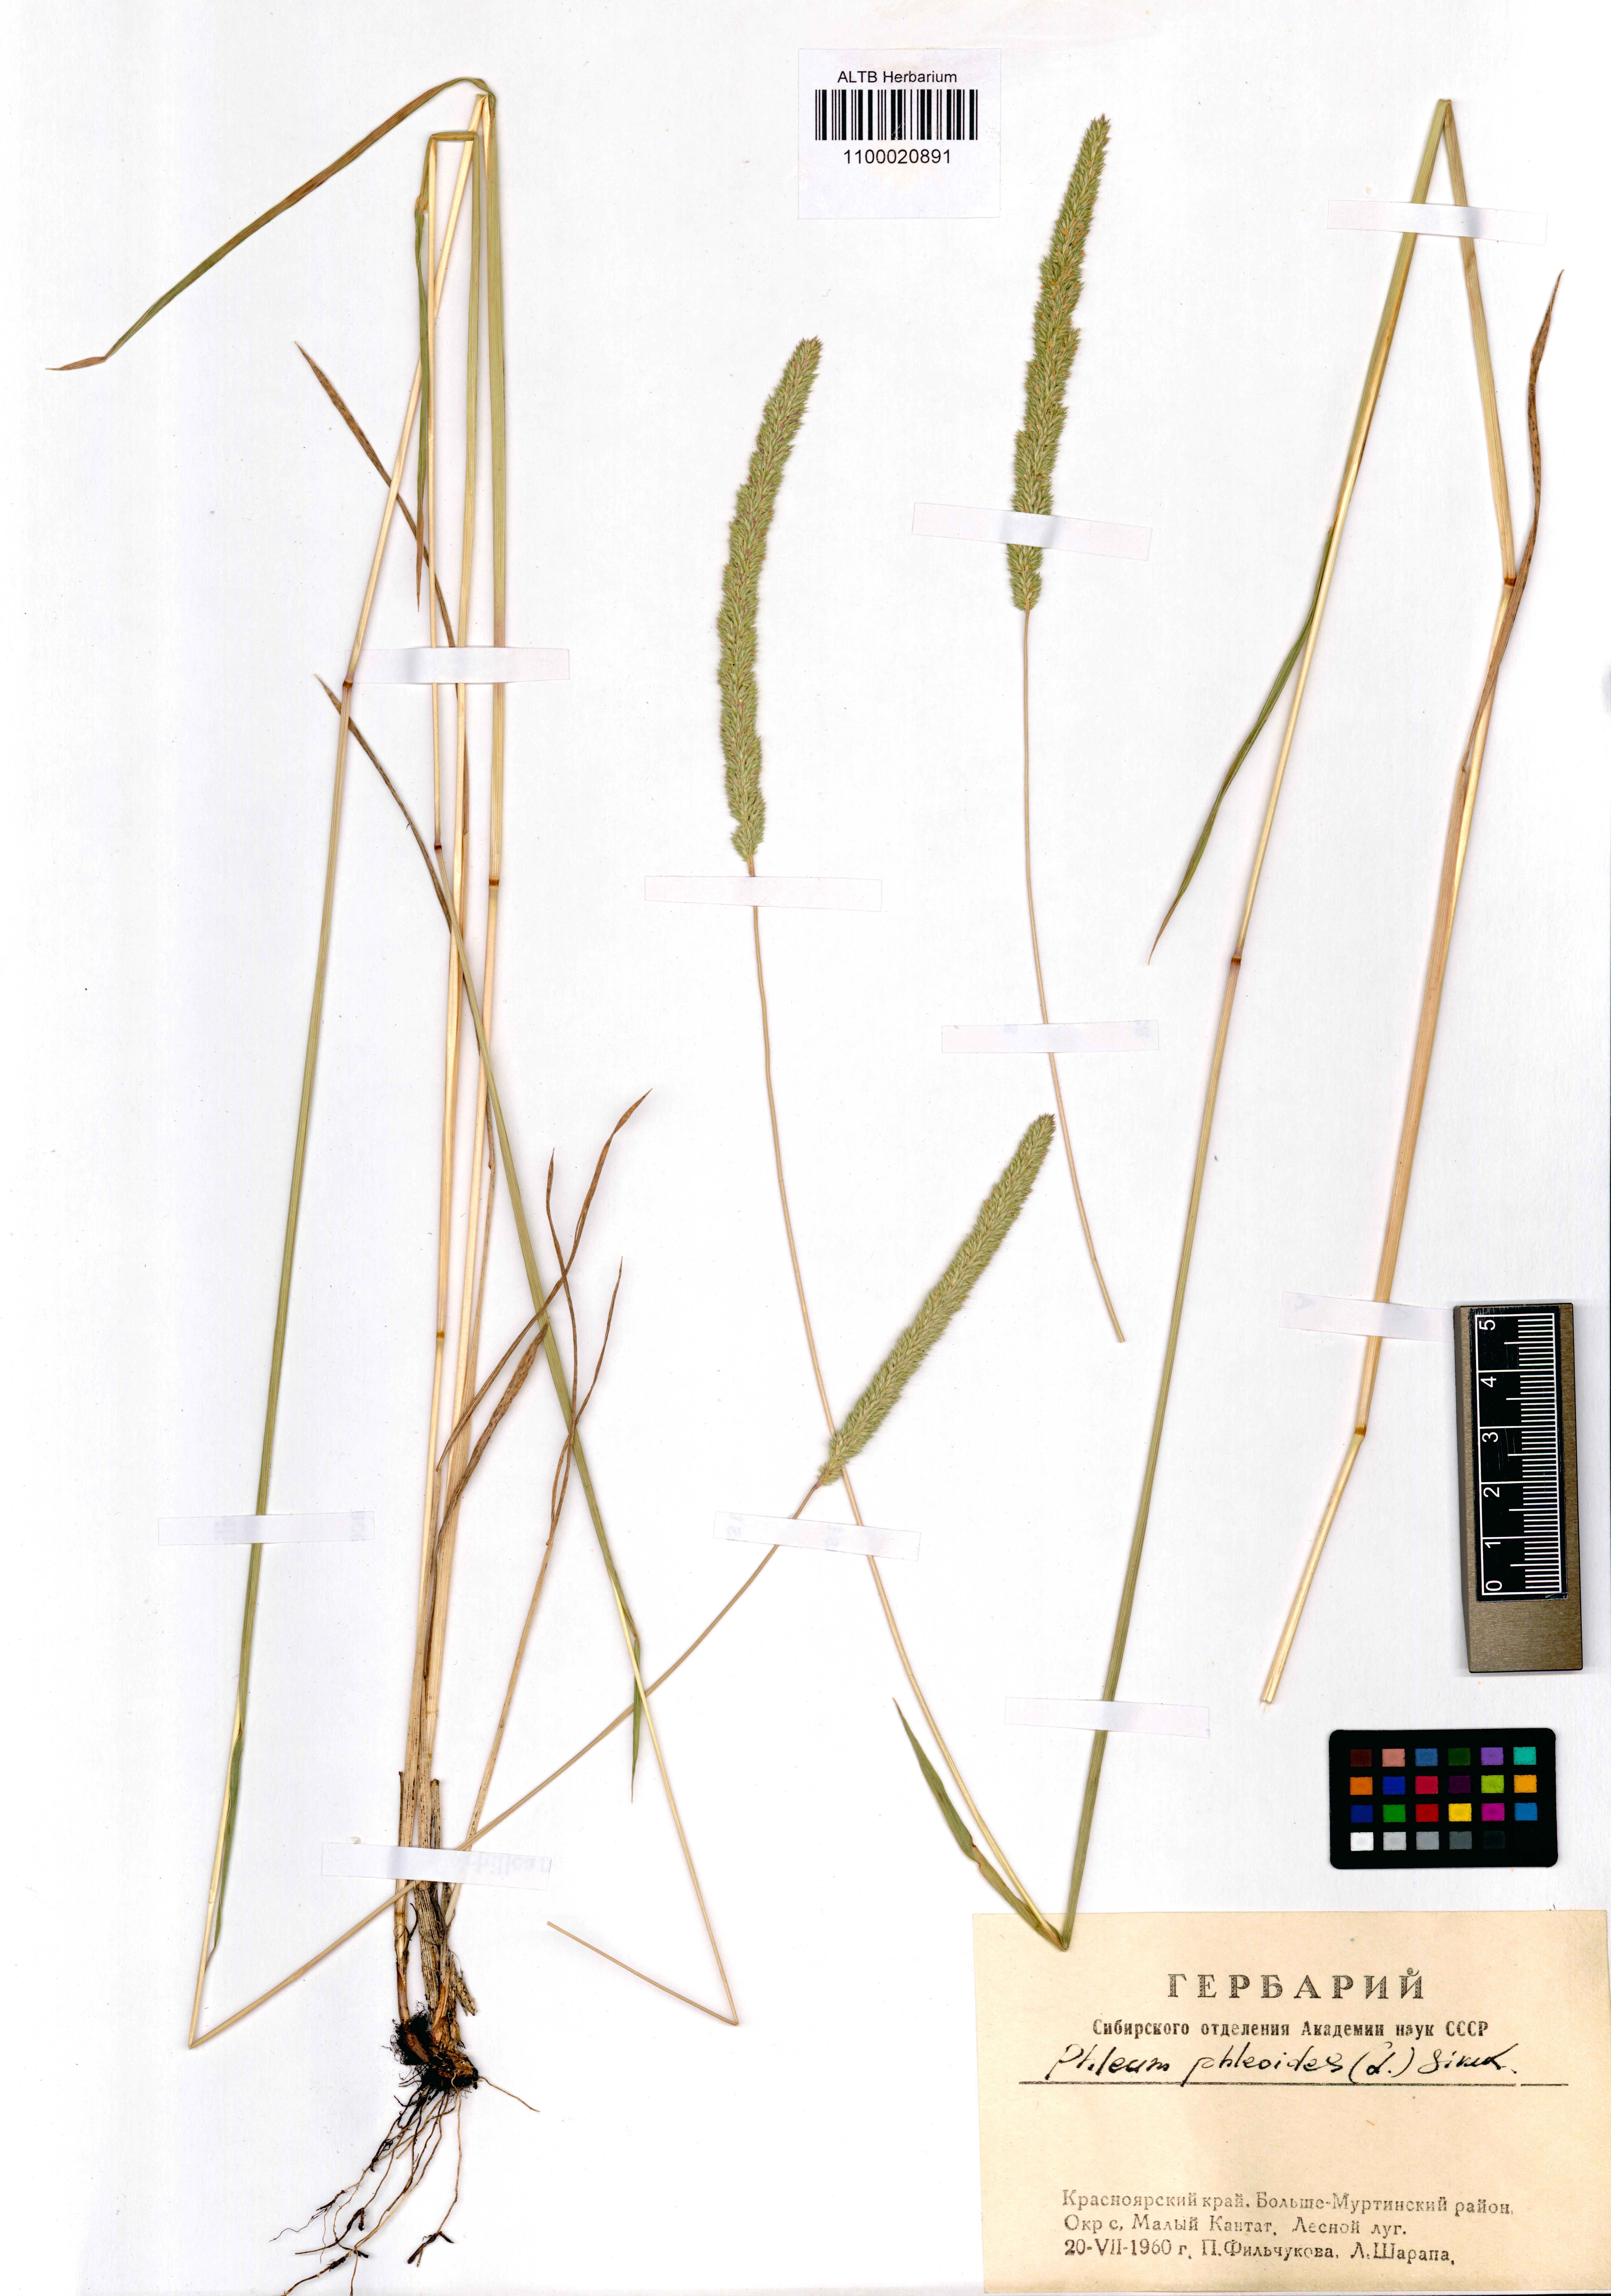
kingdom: Plantae
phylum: Tracheophyta
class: Liliopsida
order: Poales
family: Poaceae
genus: Phleum
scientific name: Phleum phleoides
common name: Purple-stem cat's-tail
